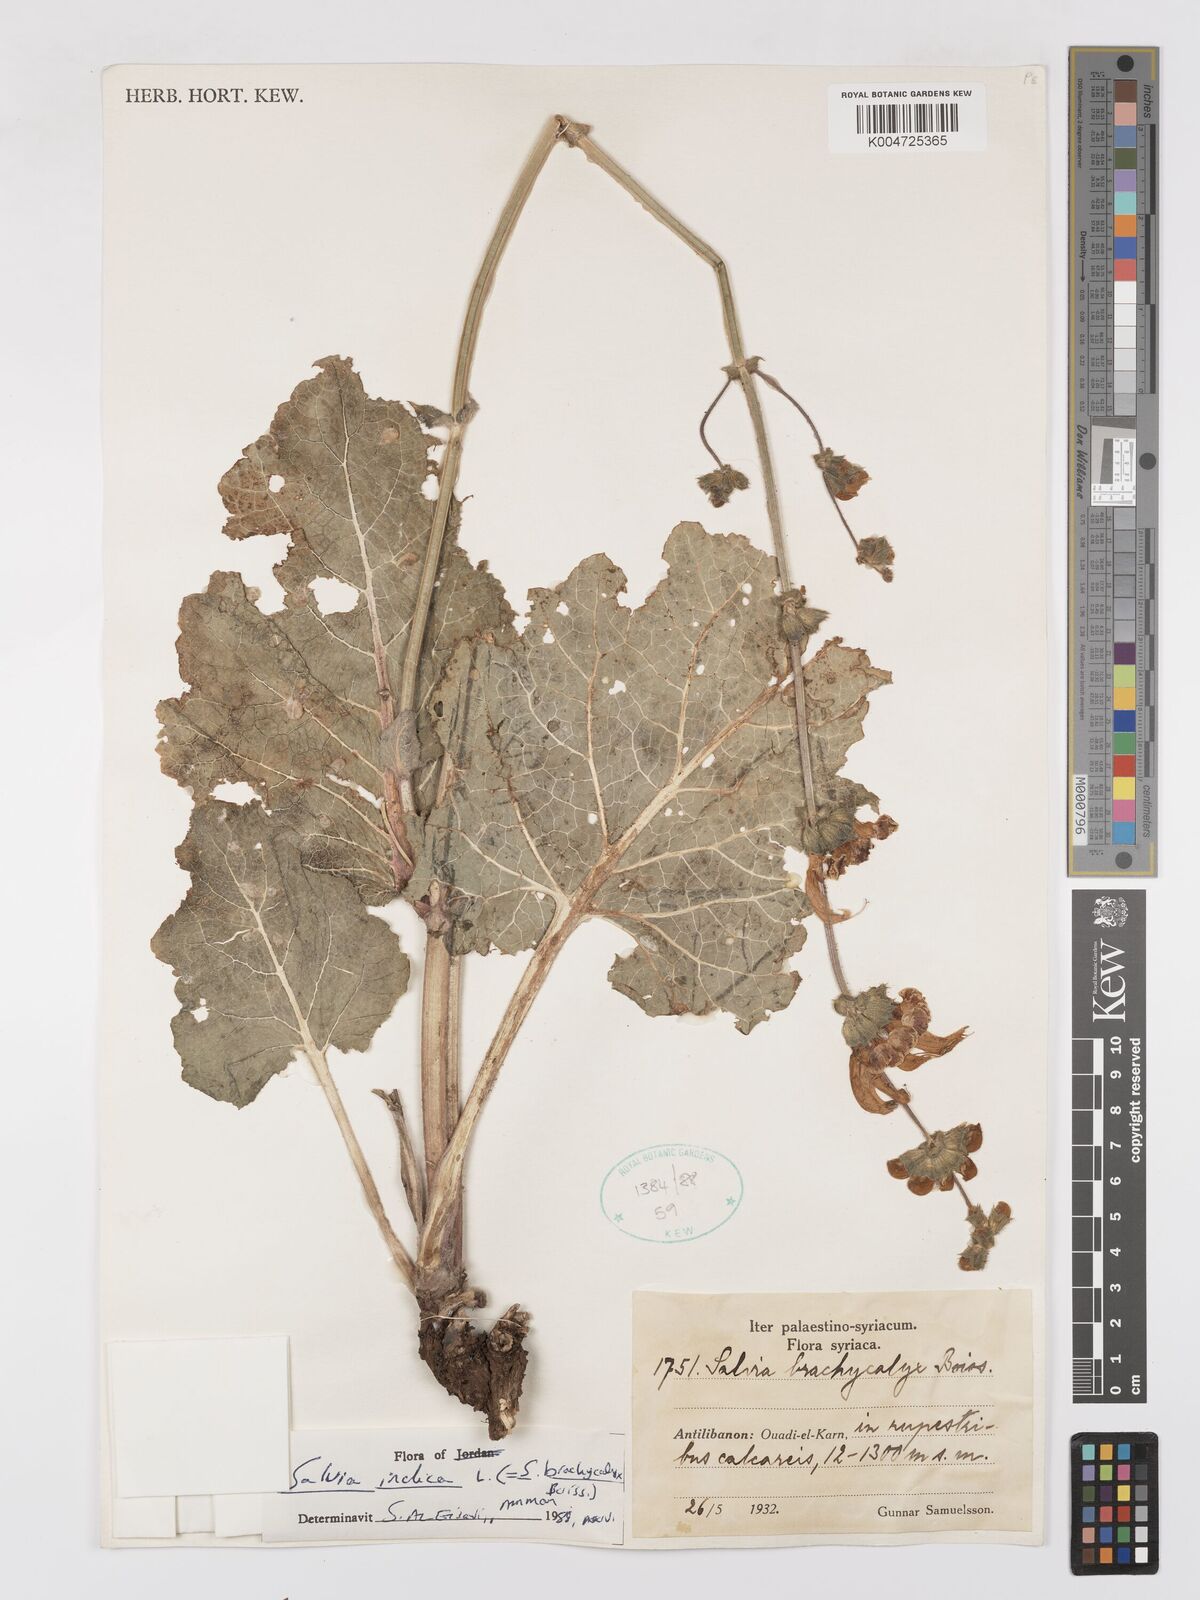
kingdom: Plantae
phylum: Tracheophyta
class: Magnoliopsida
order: Lamiales
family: Lamiaceae
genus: Salvia
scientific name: Salvia indica
